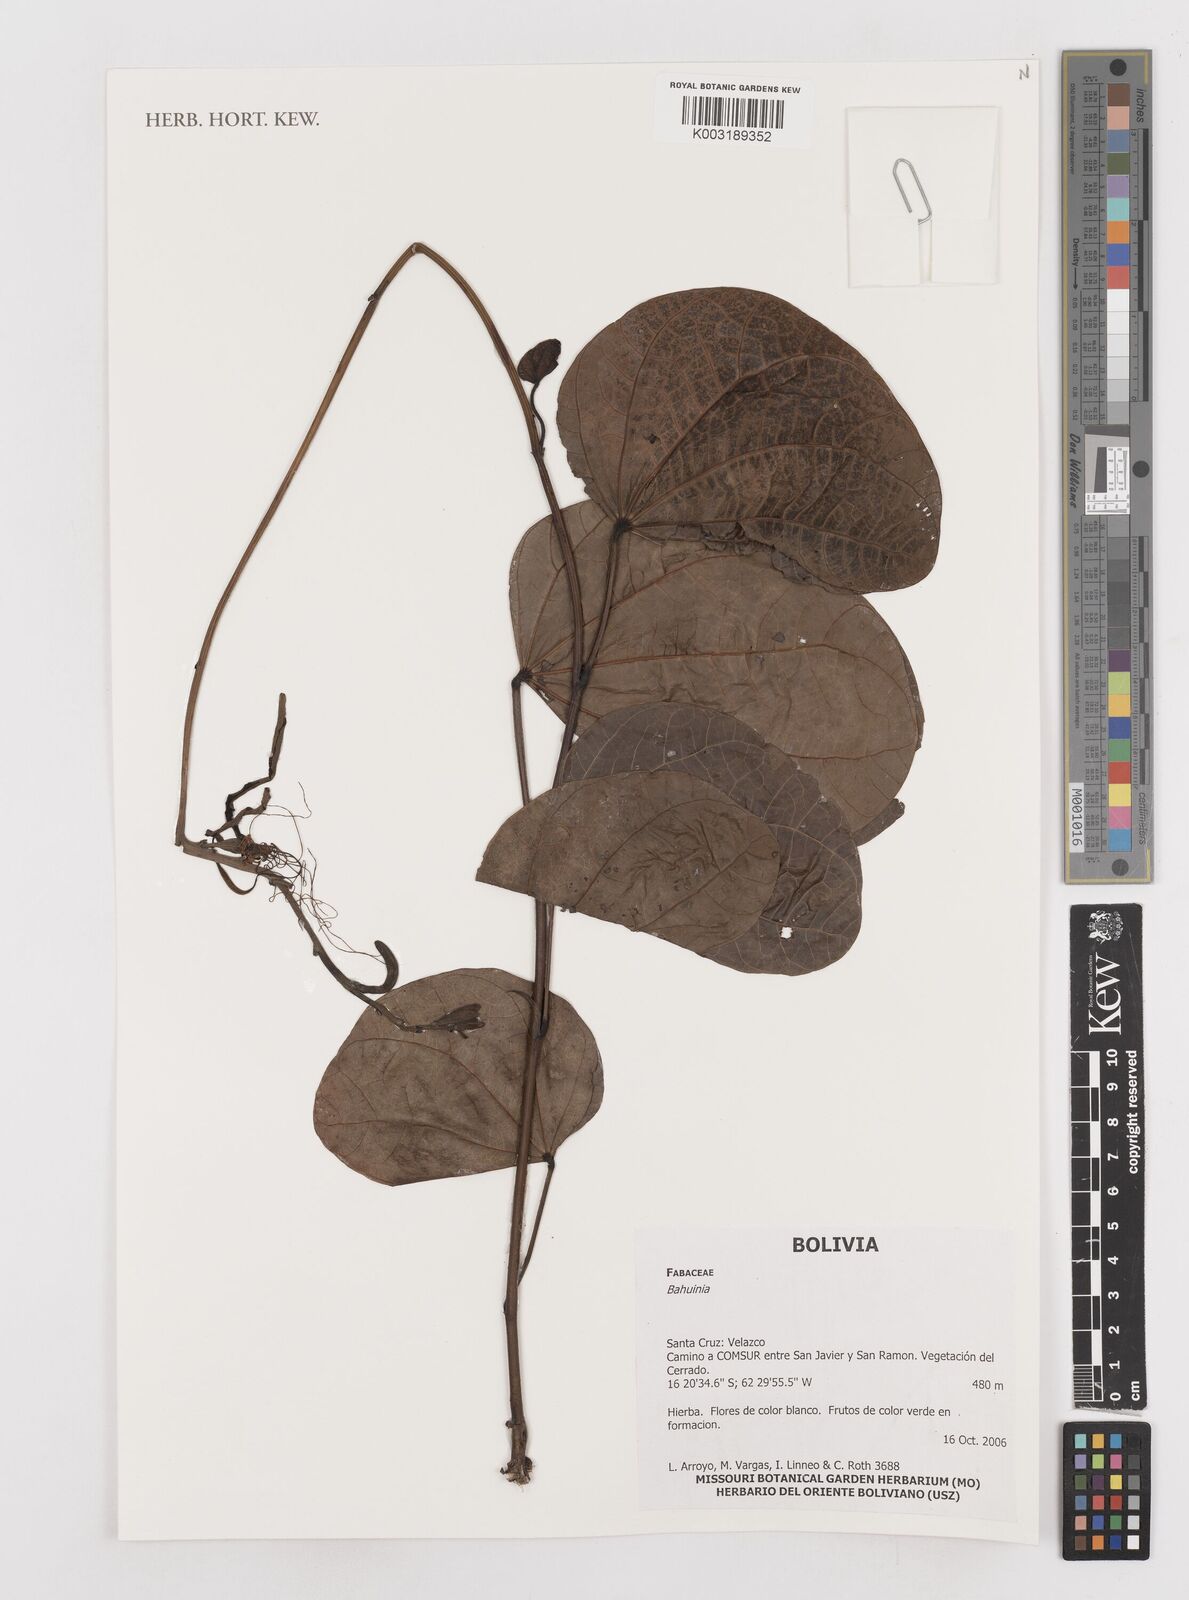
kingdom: Plantae
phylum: Tracheophyta
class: Magnoliopsida
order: Fabales
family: Fabaceae
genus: Bauhinia
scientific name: Bauhinia
